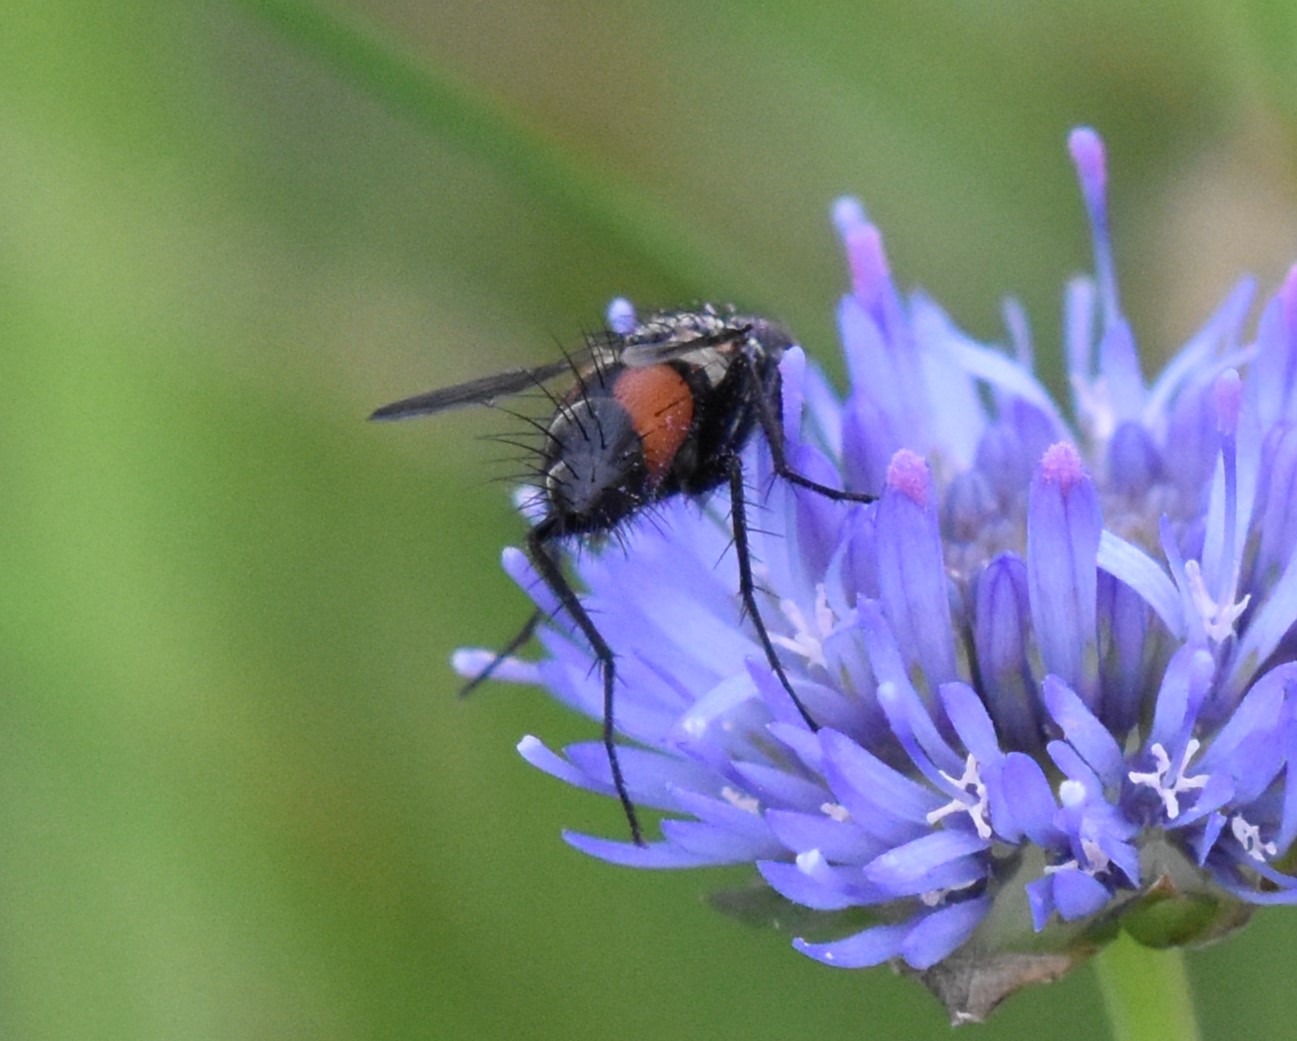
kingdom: Animalia
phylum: Arthropoda
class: Insecta
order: Diptera
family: Tachinidae
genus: Eriothrix
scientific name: Eriothrix rufomaculatus
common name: Rød snylteflue
